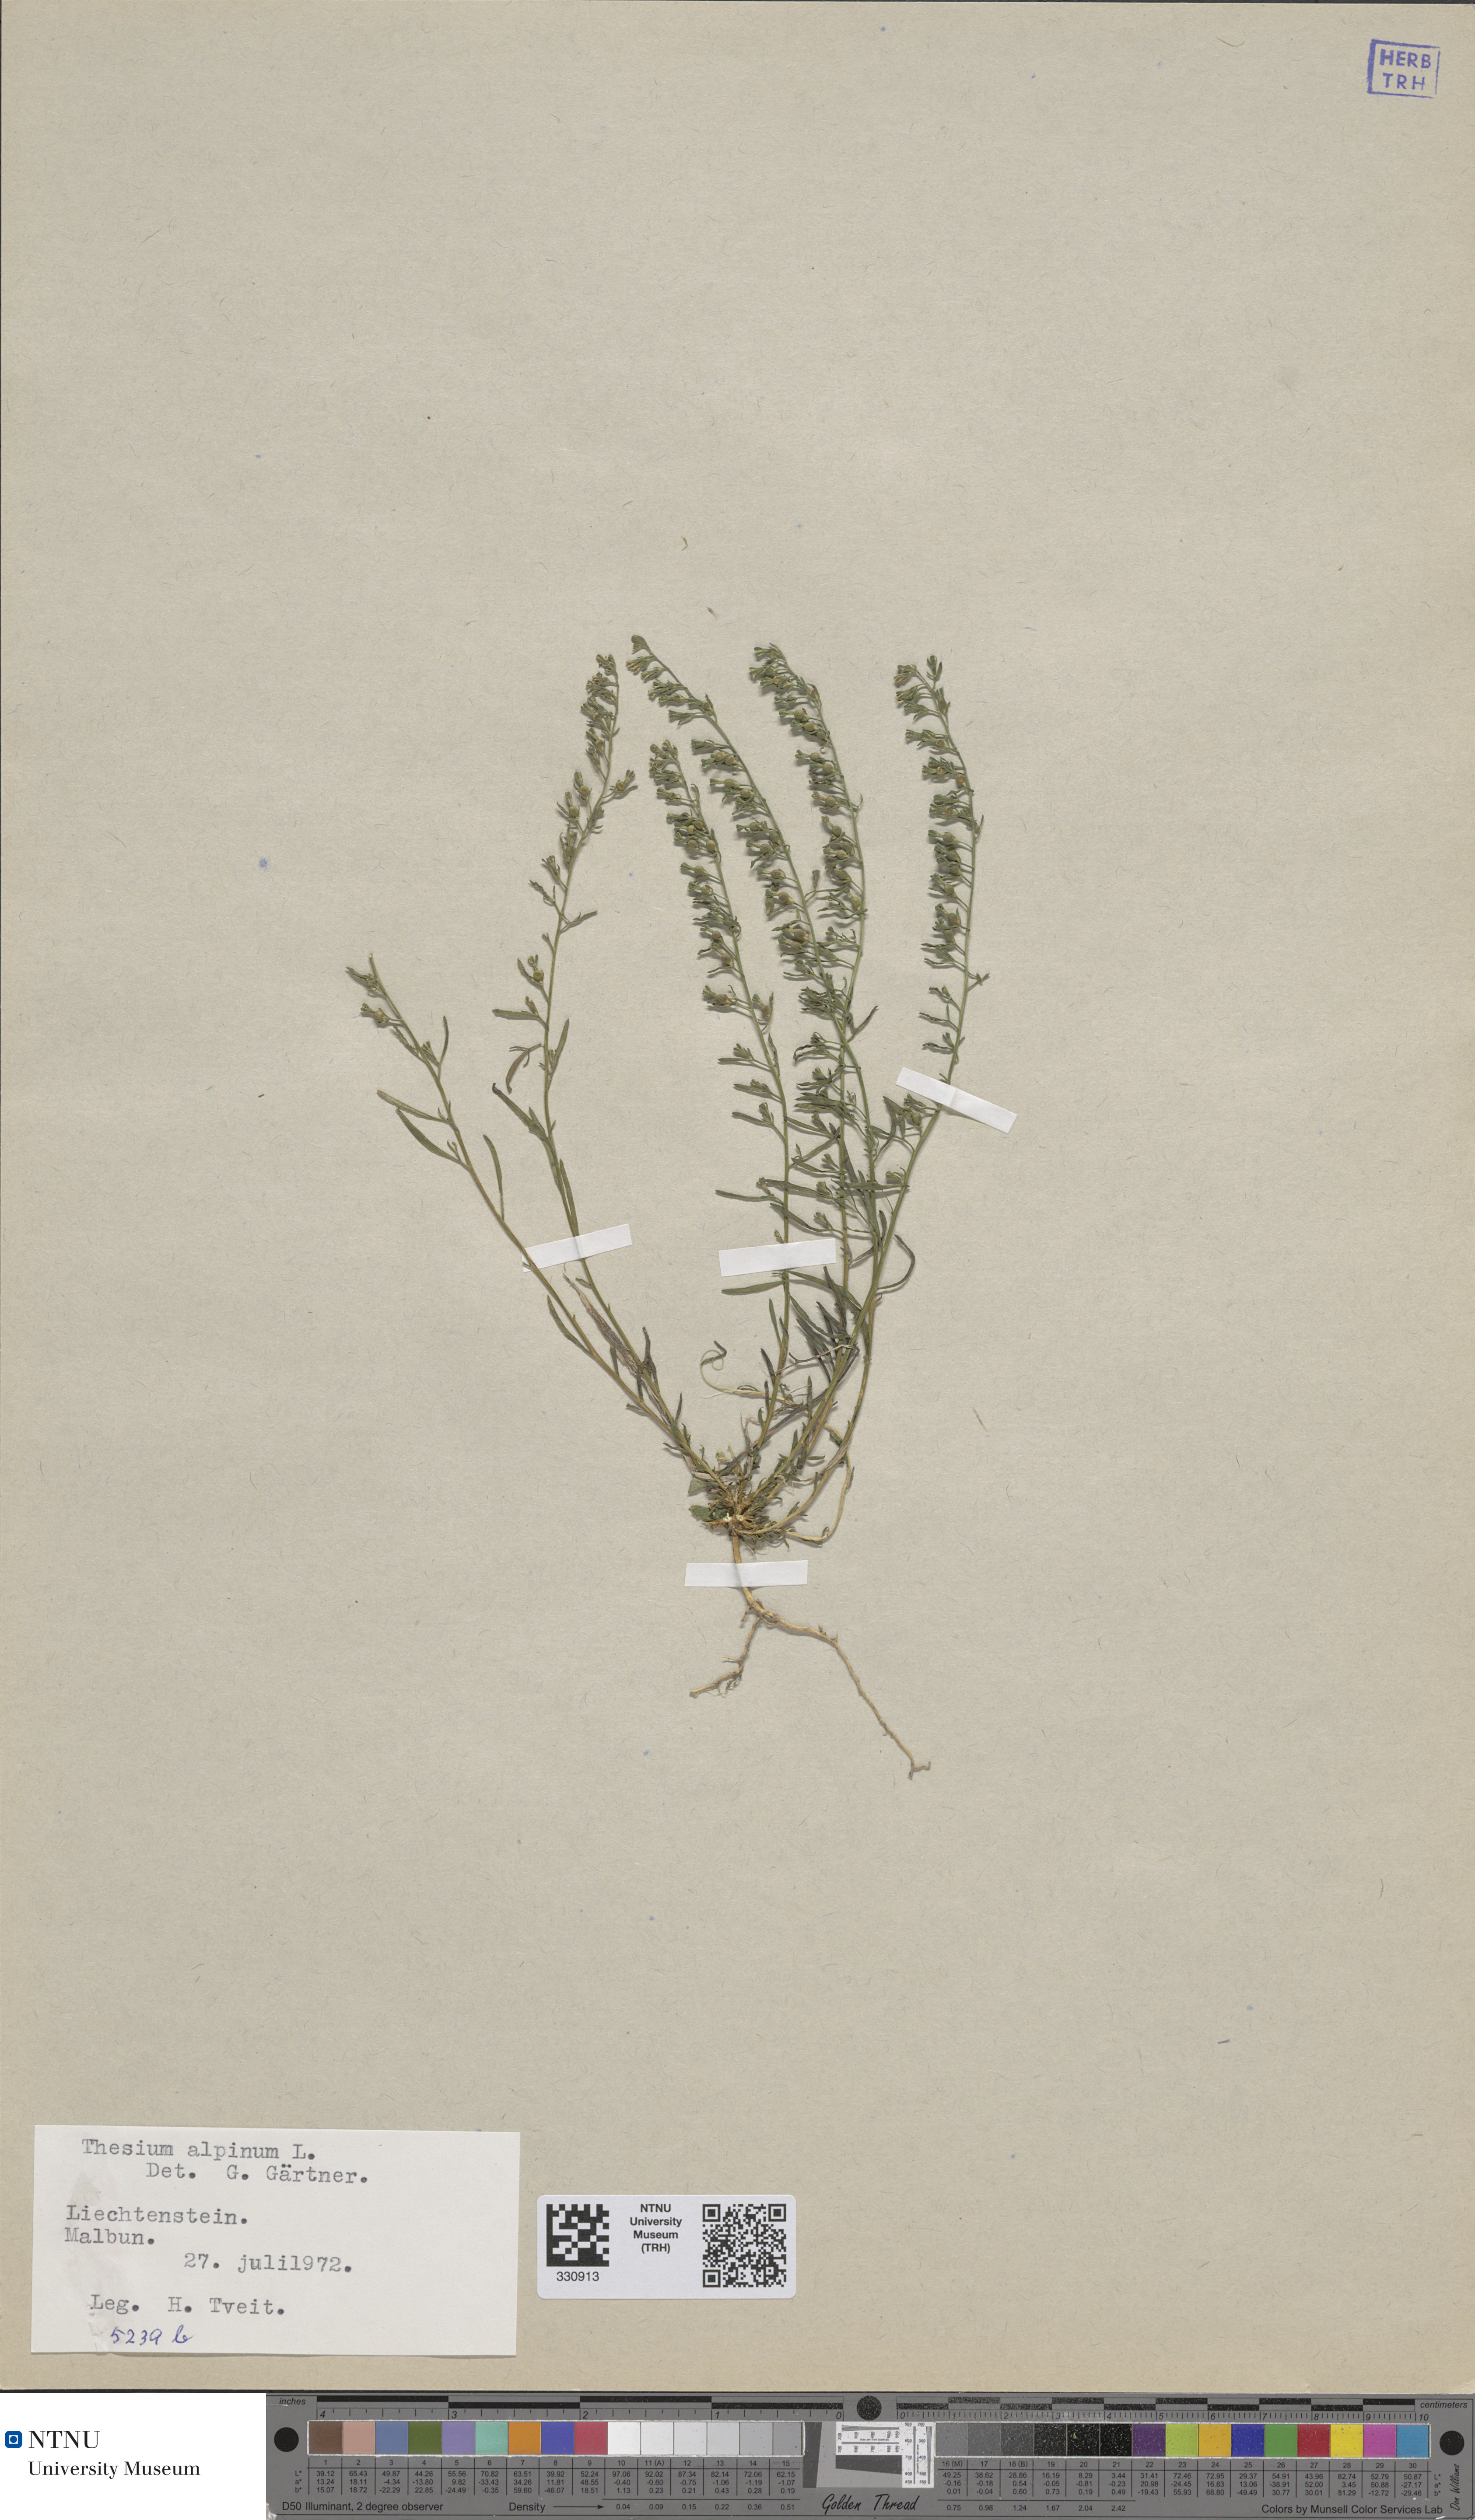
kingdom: Plantae
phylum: Tracheophyta
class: Magnoliopsida
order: Santalales
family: Thesiaceae
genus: Thesium
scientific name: Thesium alpinum
